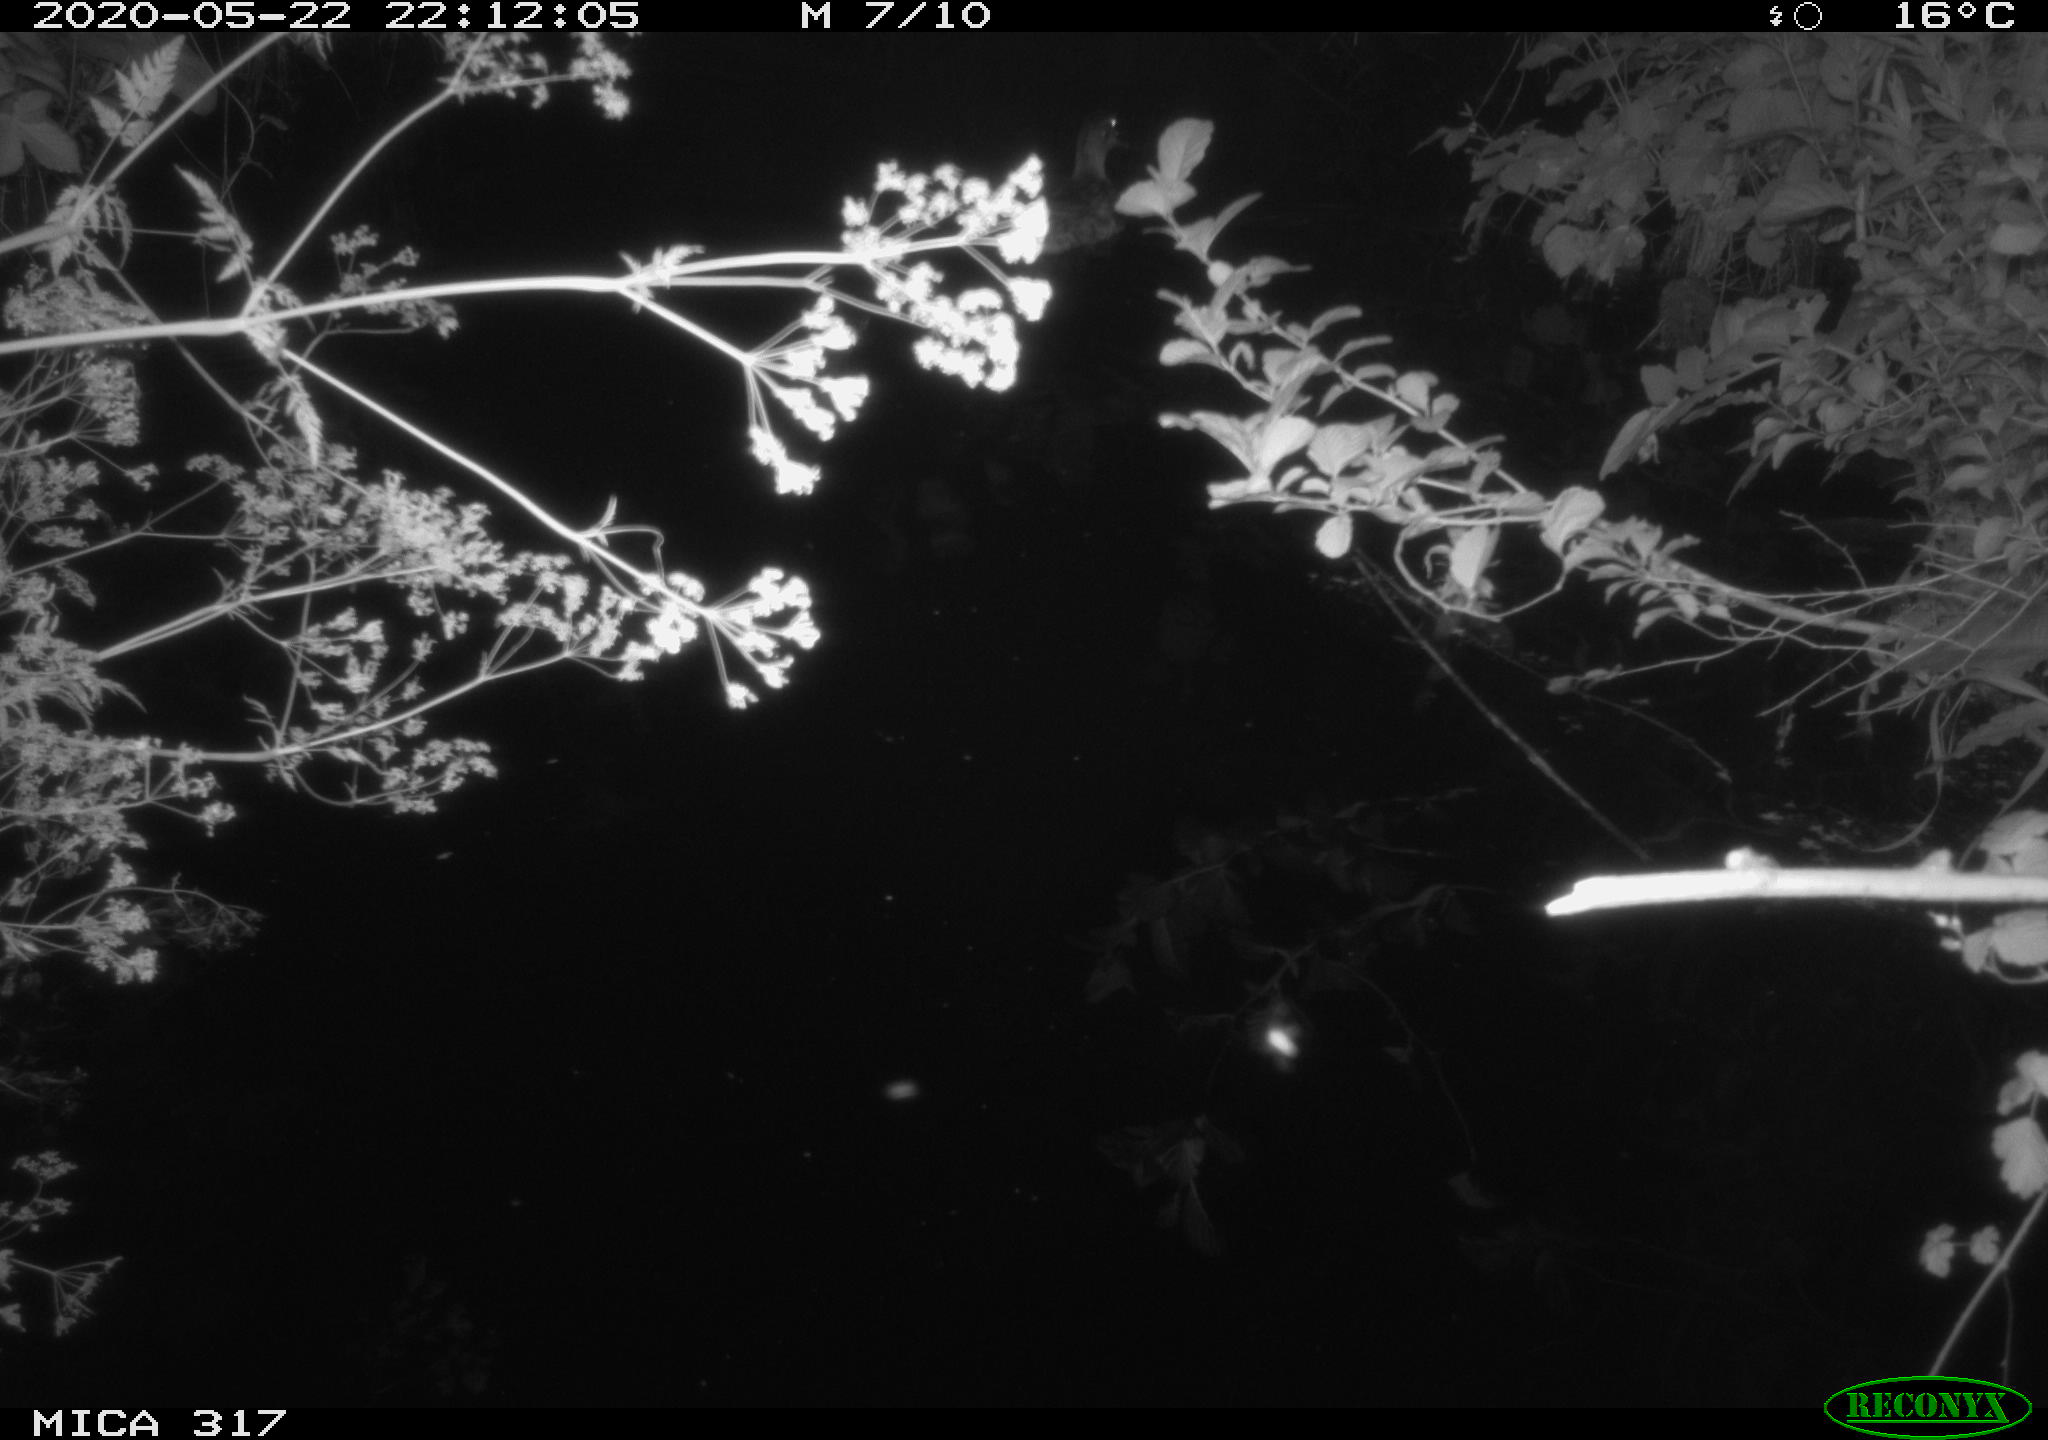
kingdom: Animalia
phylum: Chordata
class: Aves
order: Anseriformes
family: Anatidae
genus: Anas
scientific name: Anas platyrhynchos
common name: Mallard
